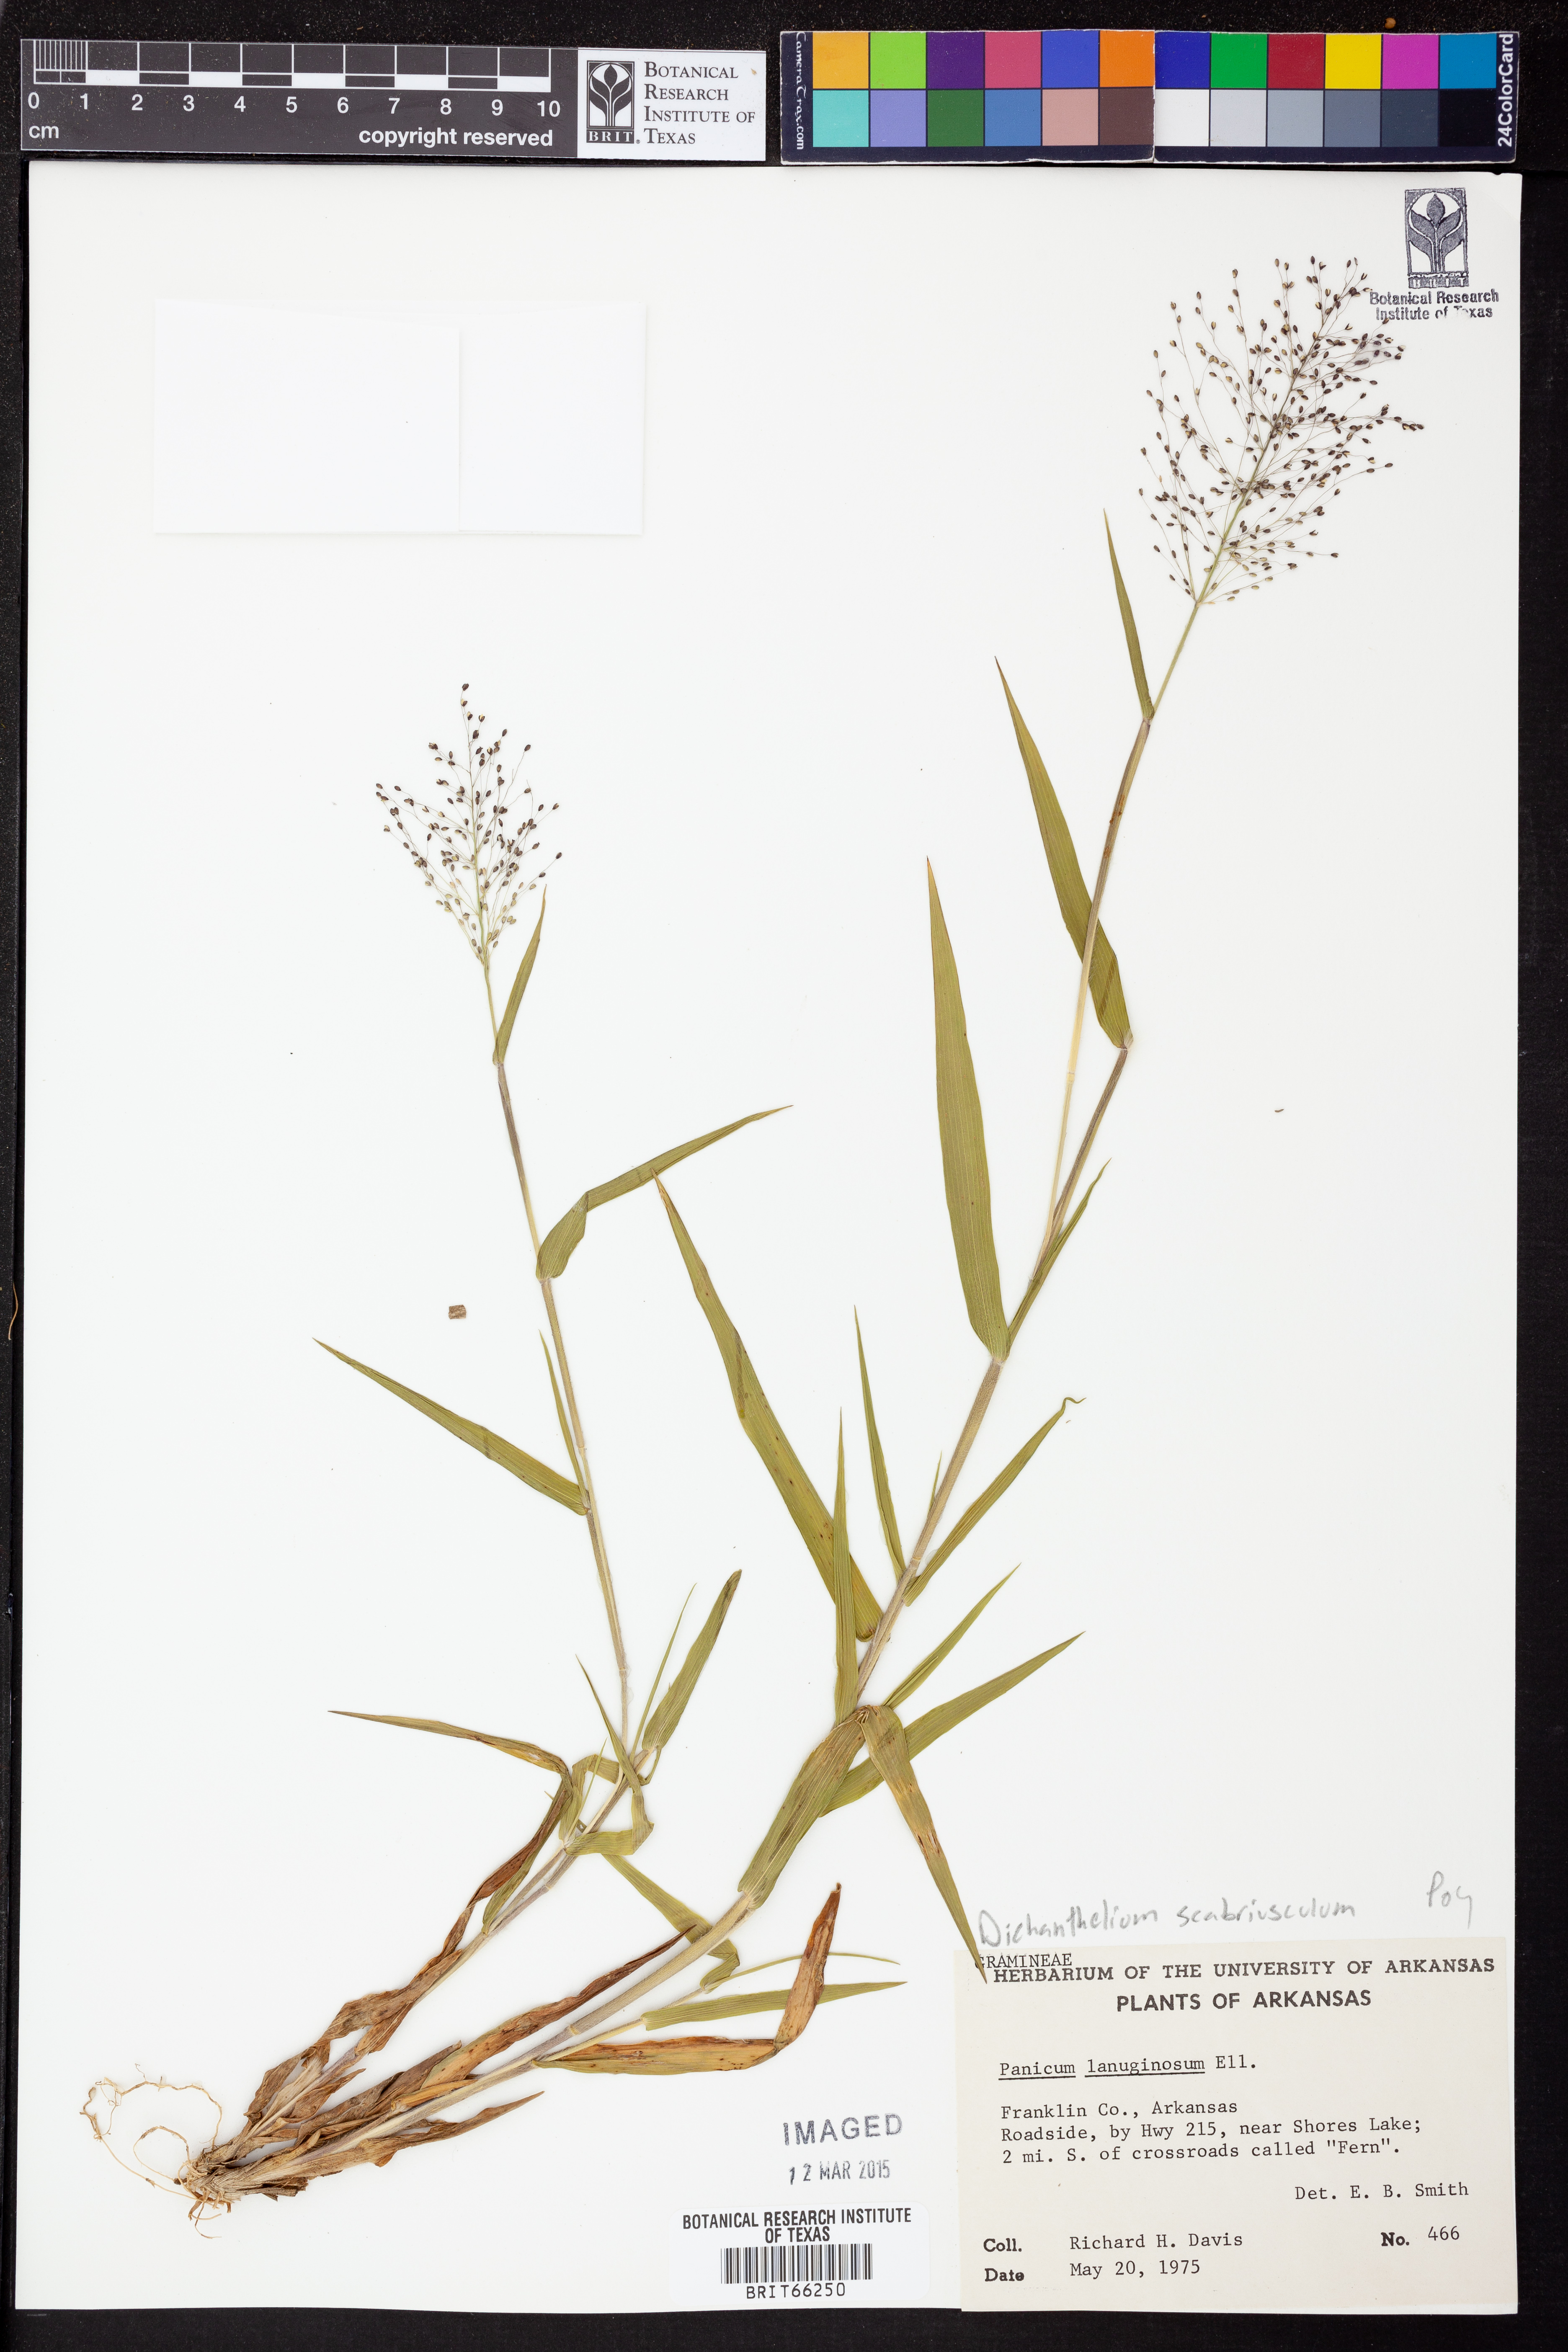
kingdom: Plantae
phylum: Tracheophyta
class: Liliopsida
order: Poales
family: Poaceae
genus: Dichanthelium
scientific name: Dichanthelium lanuginosum
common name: Woolly panicgrass
